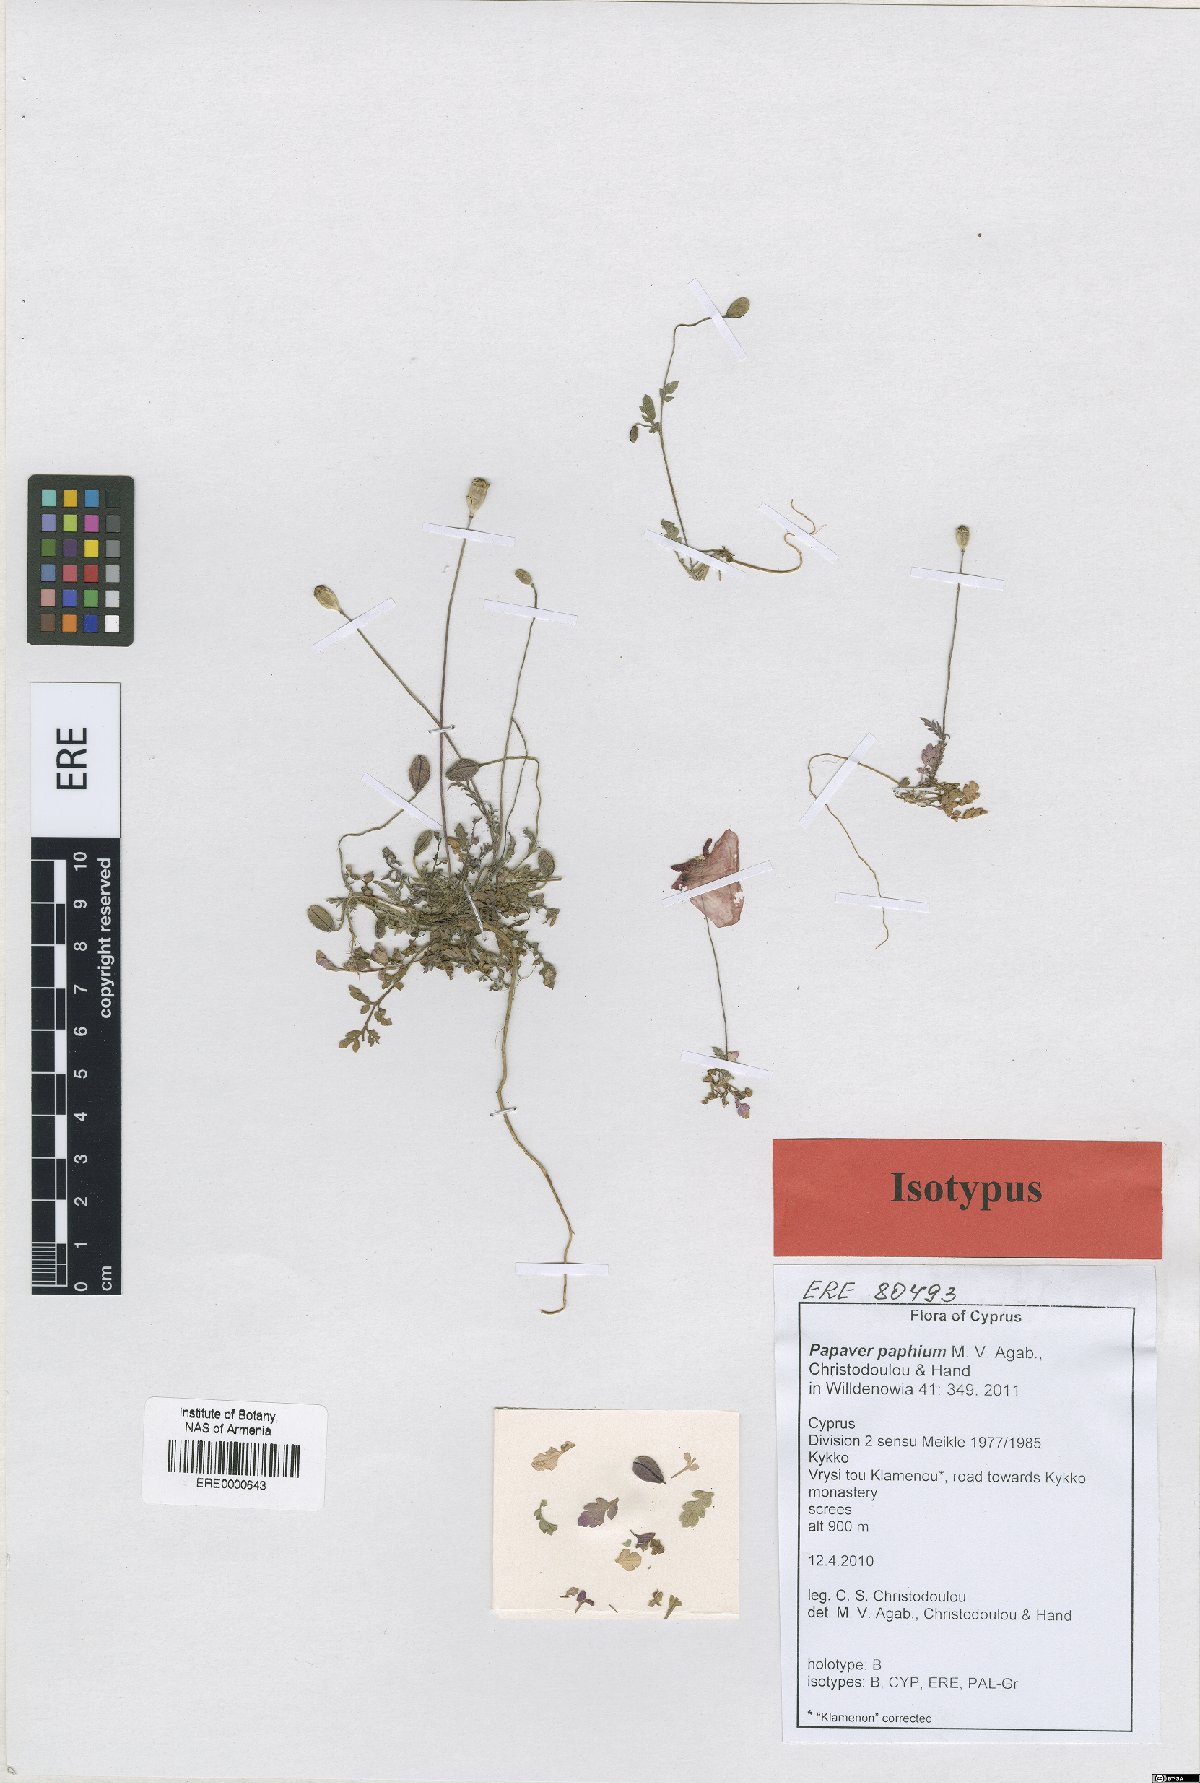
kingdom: Plantae
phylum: Tracheophyta
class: Magnoliopsida
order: Ranunculales
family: Papaveraceae
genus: Papaver
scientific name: Papaver paphium
